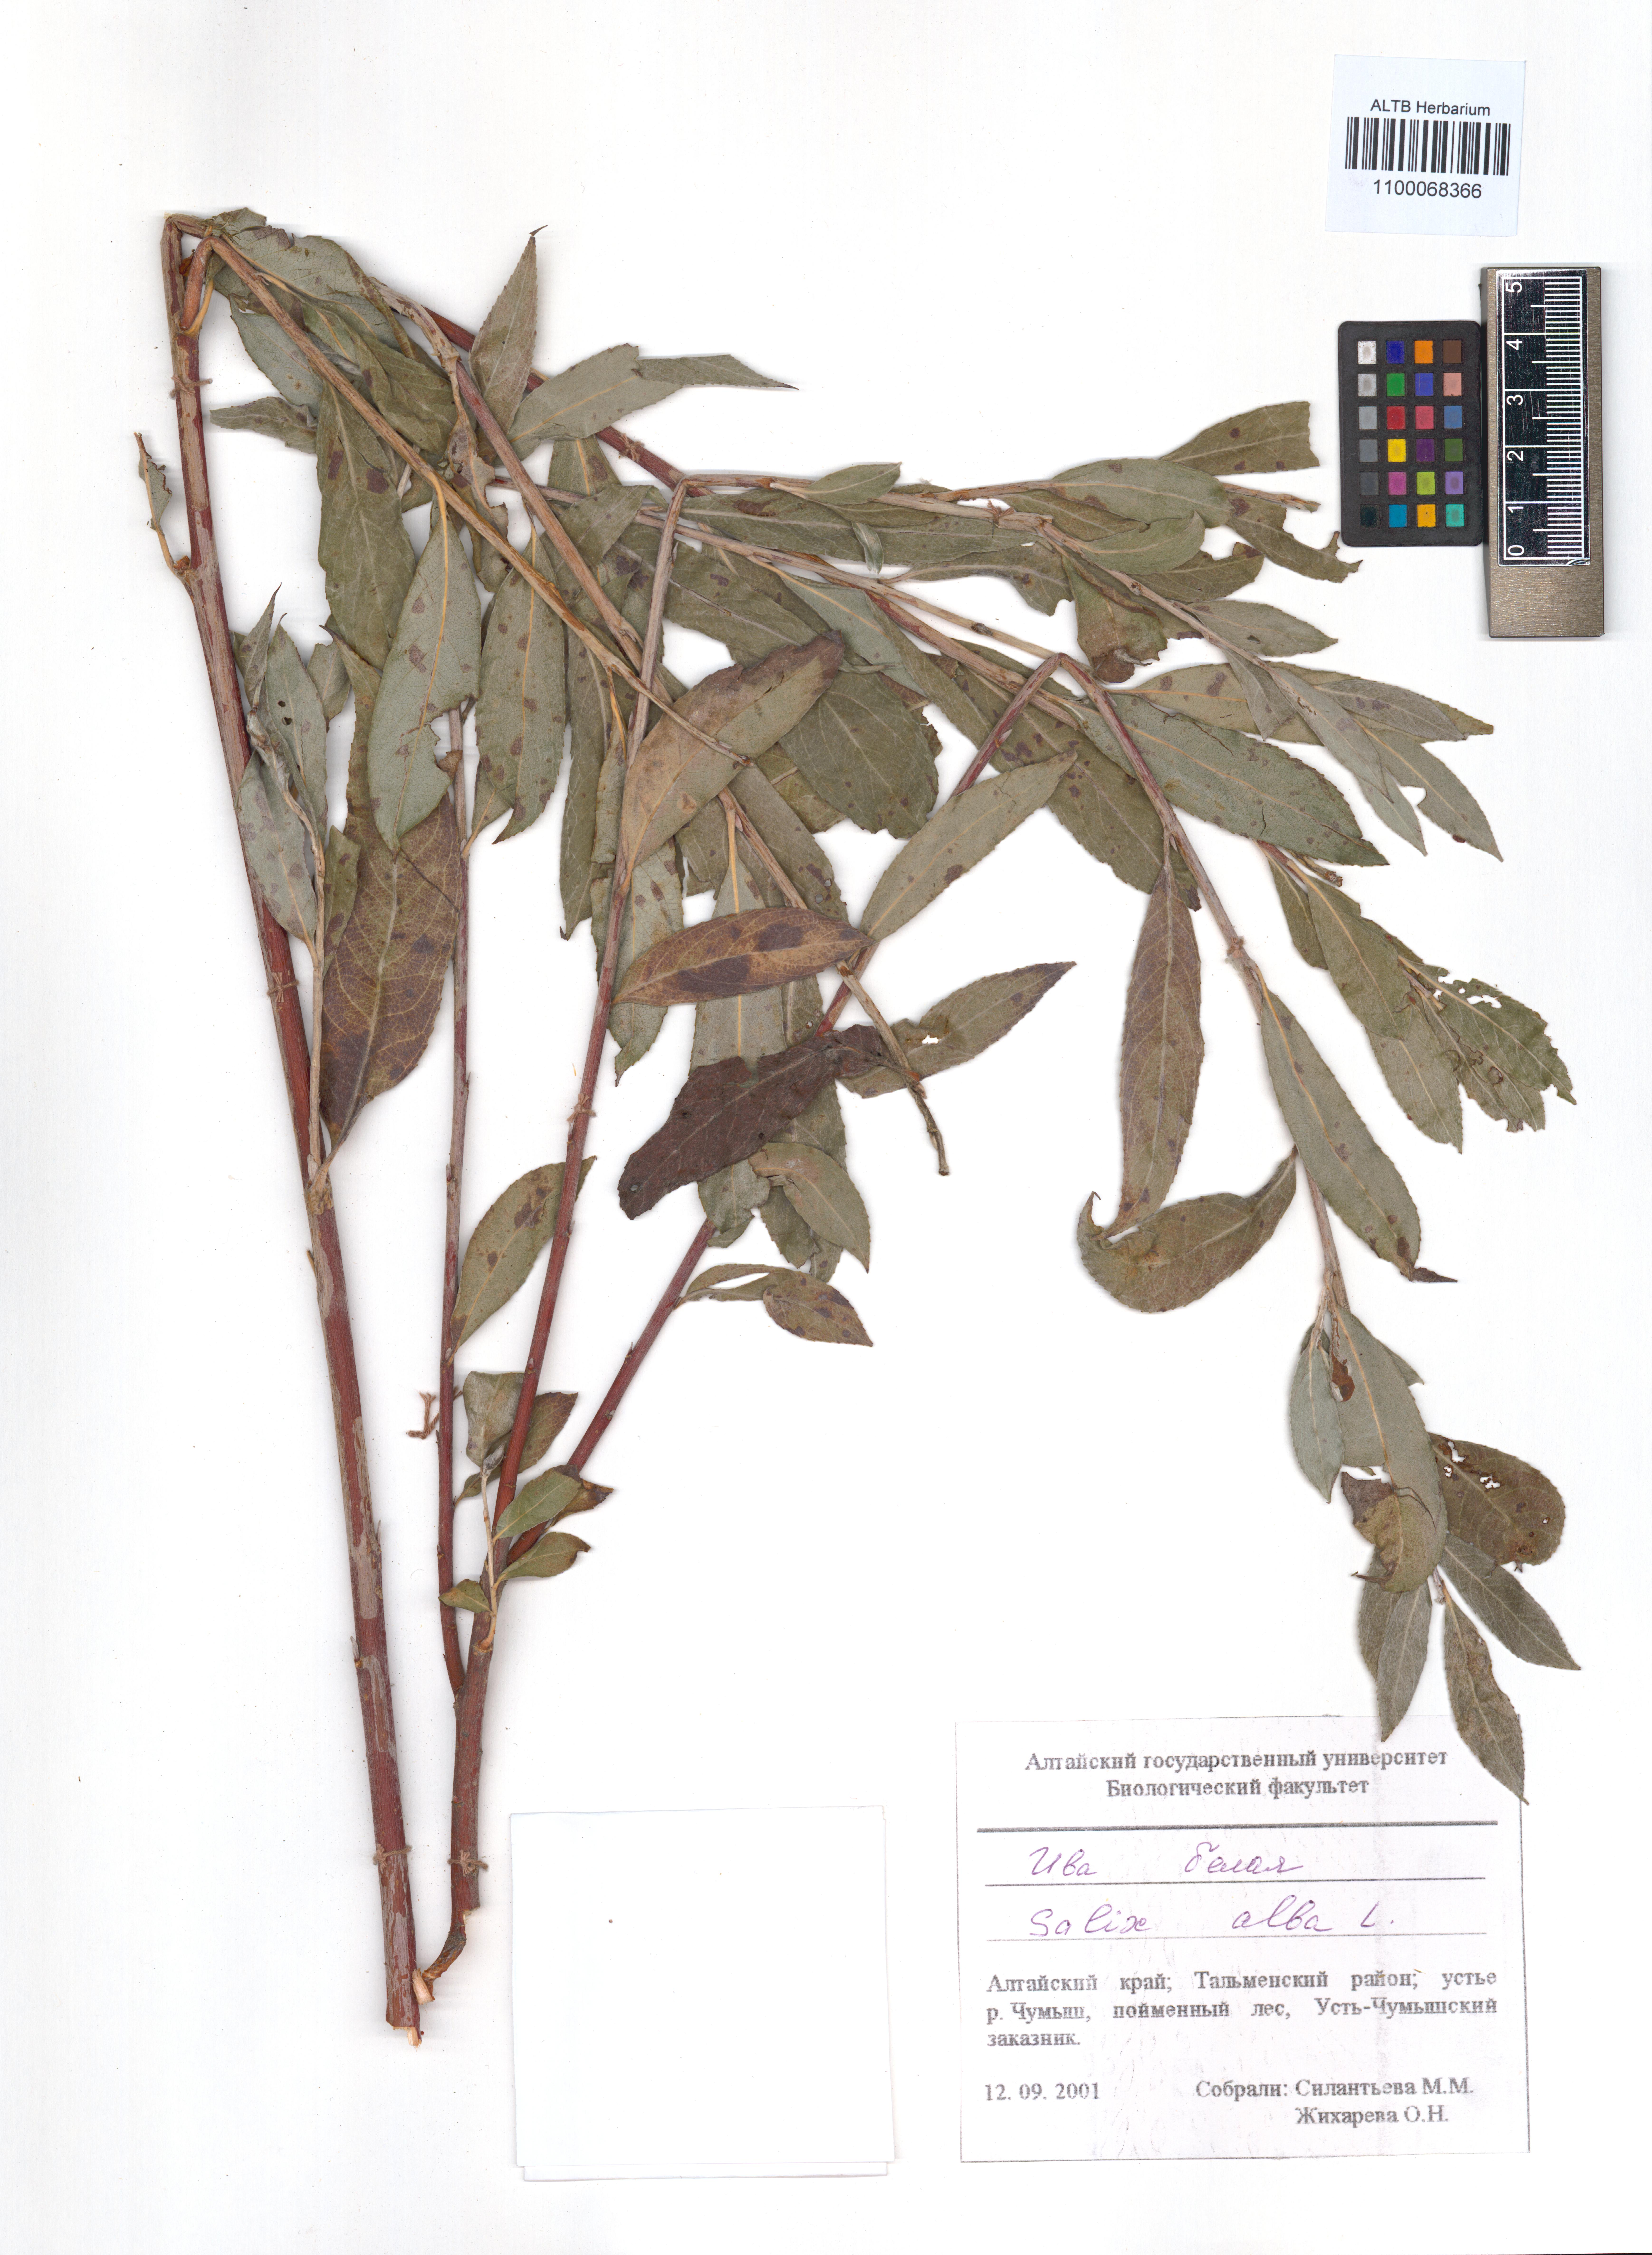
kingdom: Plantae
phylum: Tracheophyta
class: Magnoliopsida
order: Malpighiales
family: Salicaceae
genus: Salix
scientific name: Salix alba
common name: White willow
